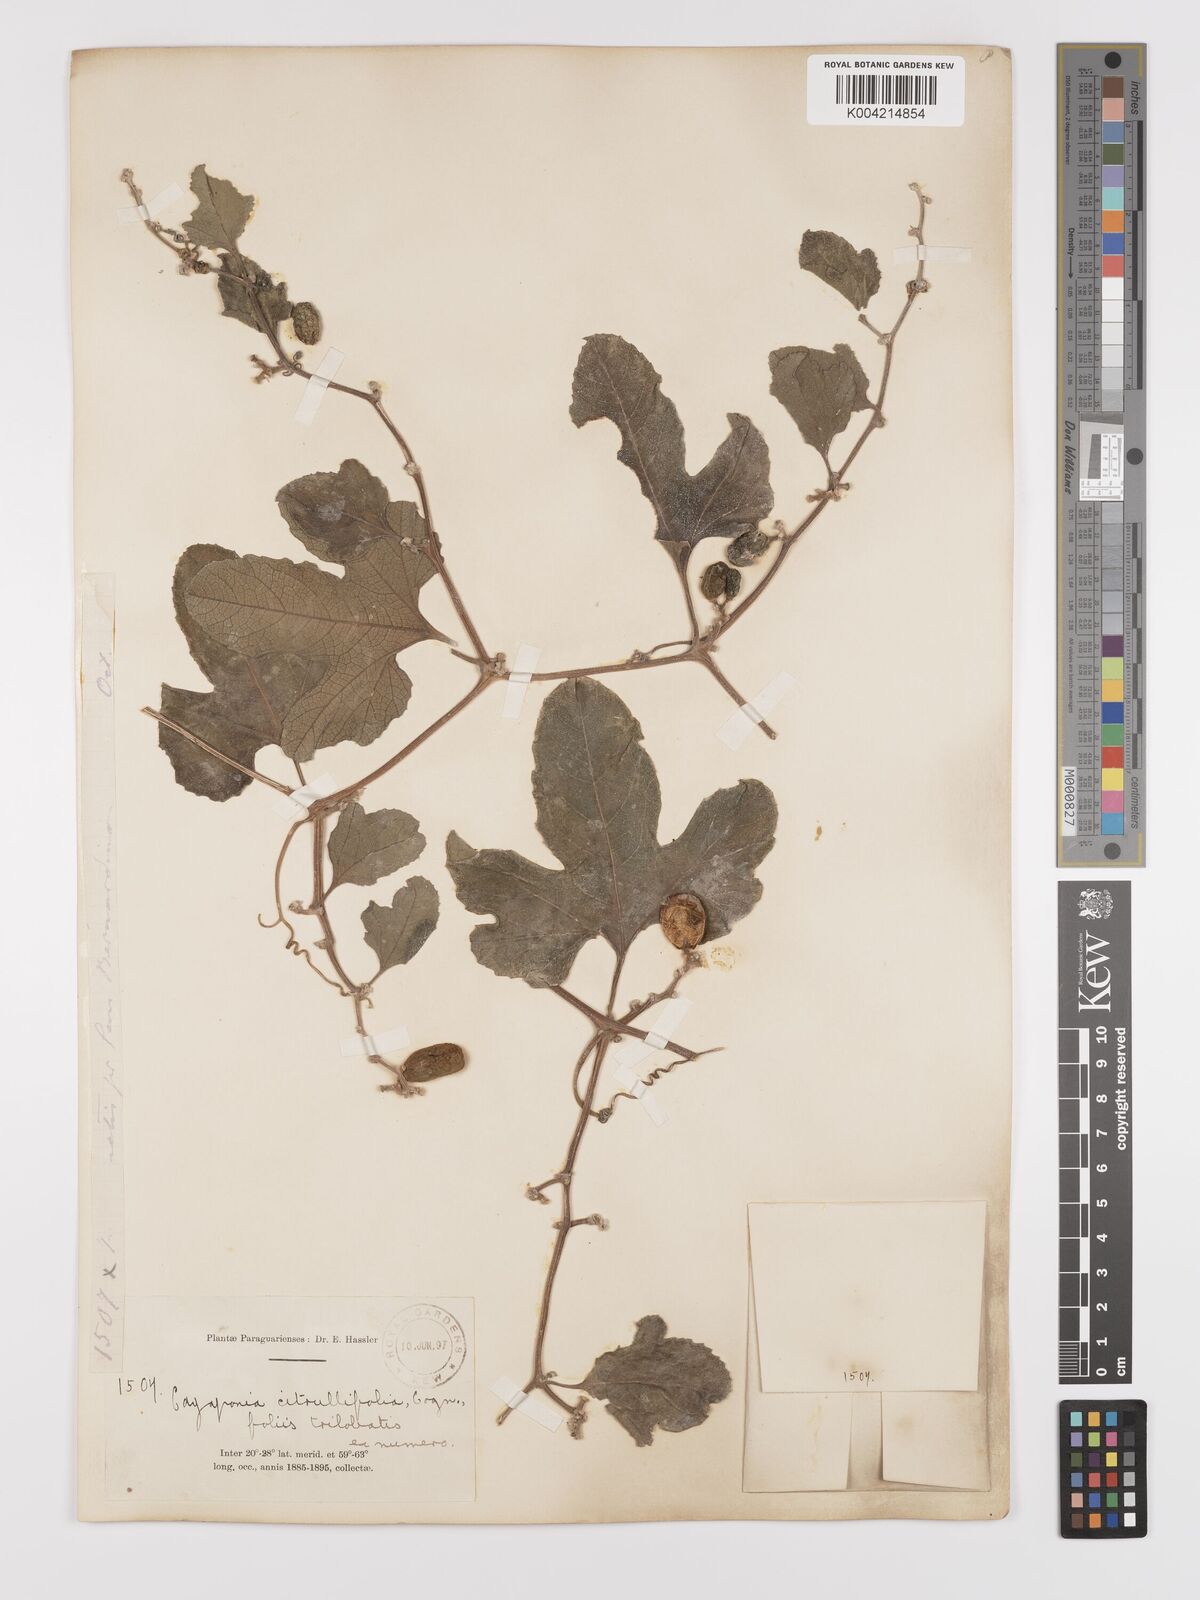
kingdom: Plantae
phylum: Tracheophyta
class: Magnoliopsida
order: Cucurbitales
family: Cucurbitaceae
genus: Cayaponia
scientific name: Cayaponia citrullifolia
